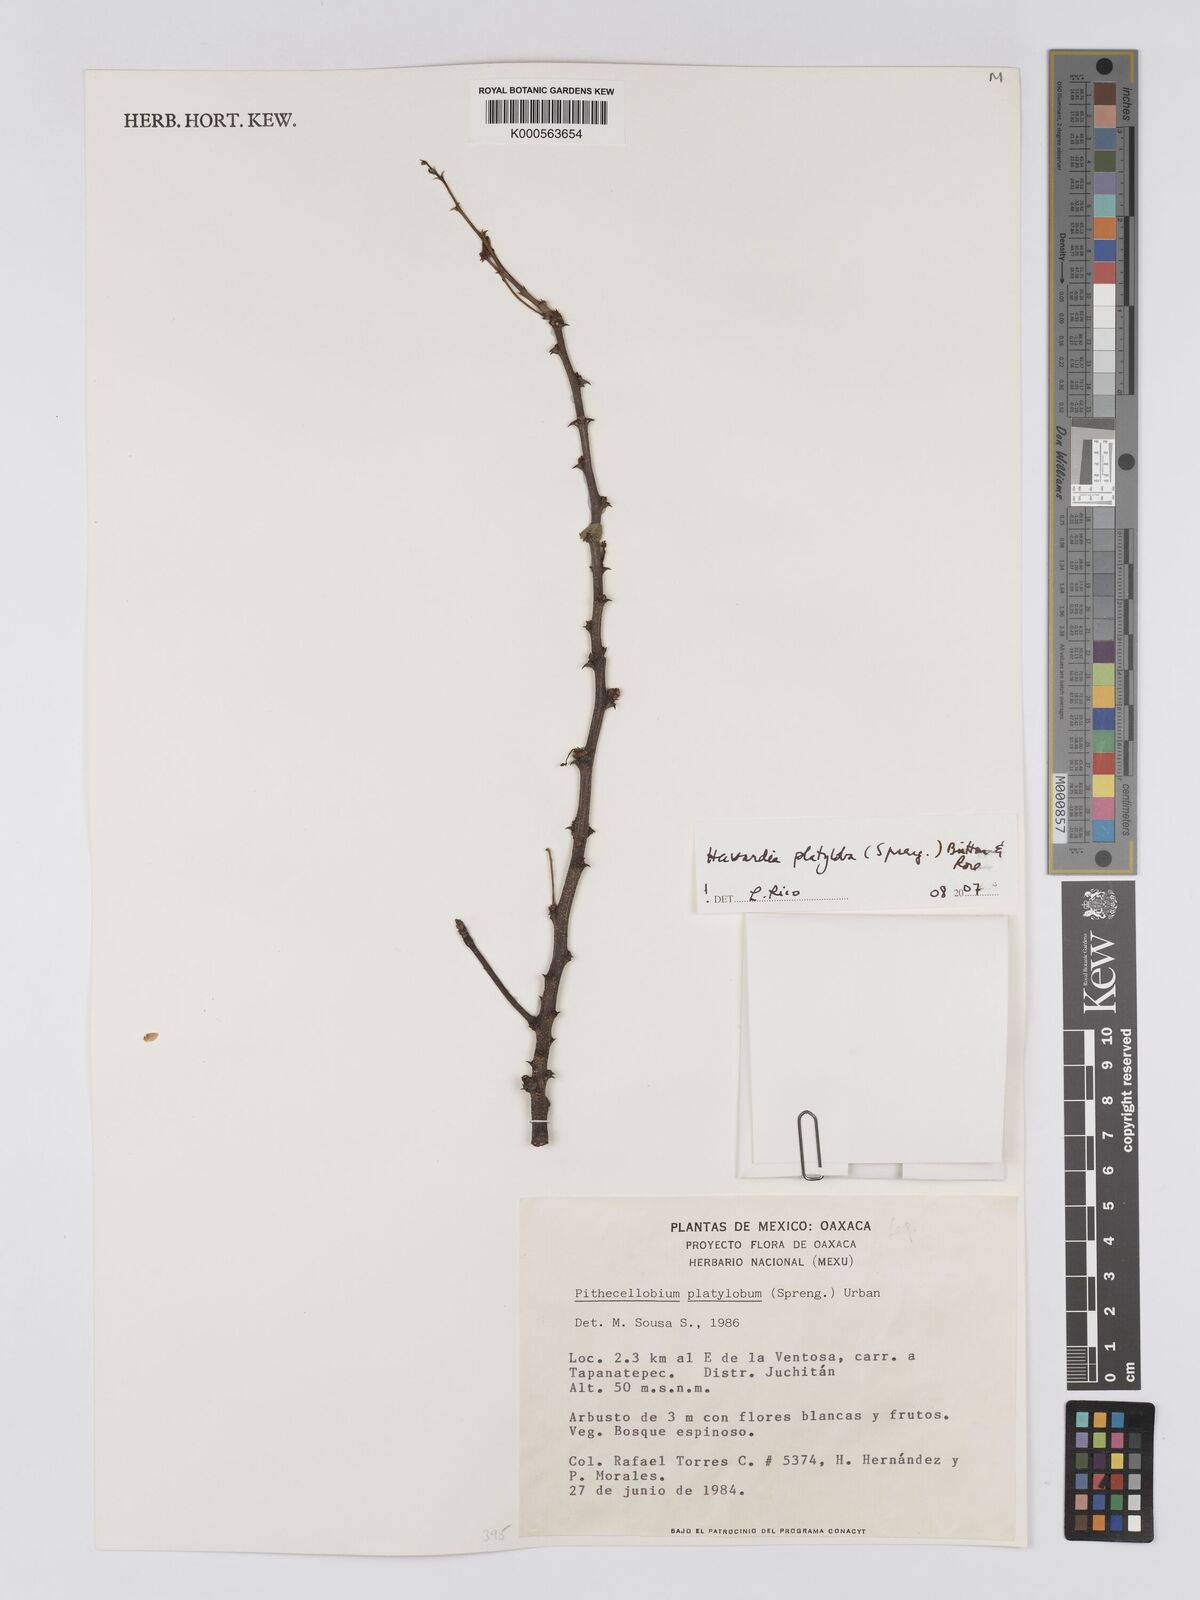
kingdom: Plantae
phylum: Tracheophyta
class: Magnoliopsida
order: Fabales
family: Fabaceae
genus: Havardia
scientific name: Havardia platyloba
